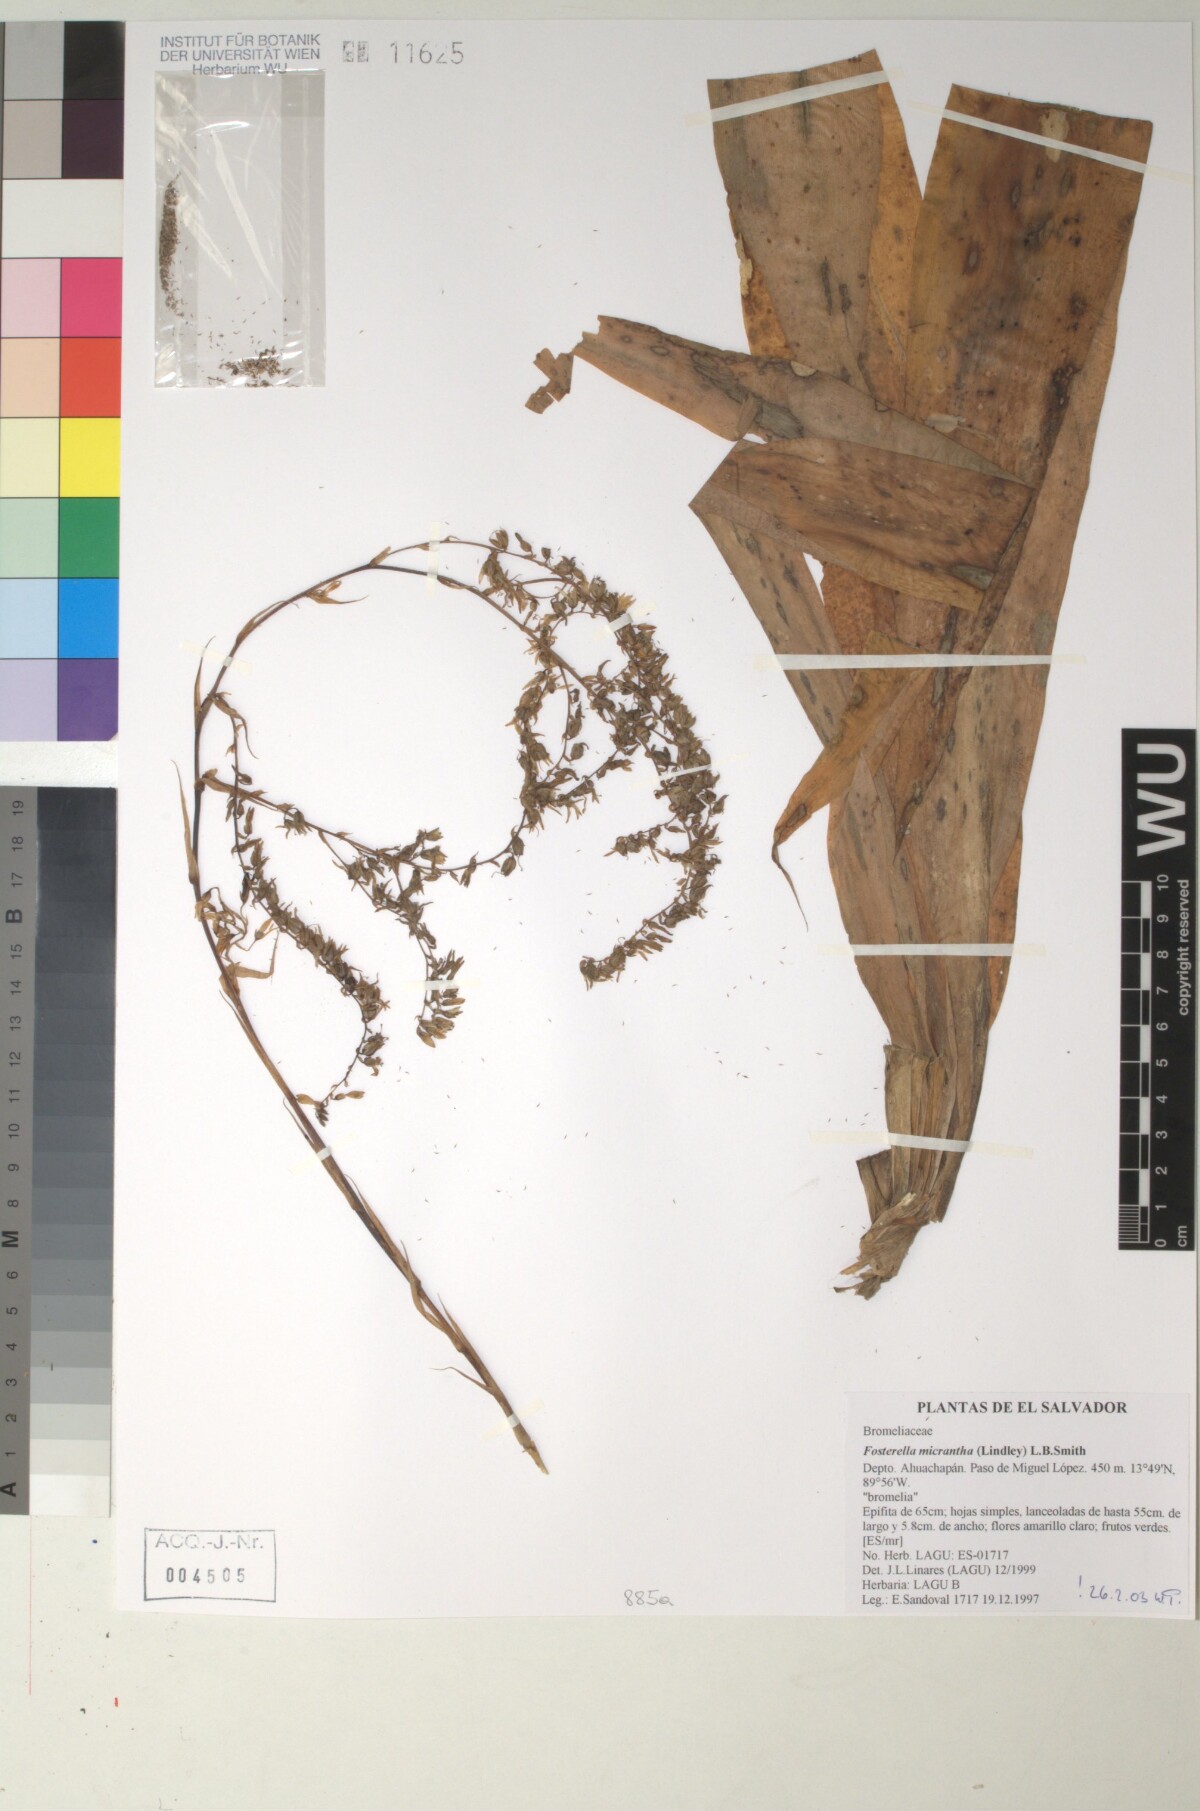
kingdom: Plantae
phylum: Tracheophyta
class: Liliopsida
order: Poales
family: Bromeliaceae
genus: Fosterella
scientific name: Fosterella micrantha
